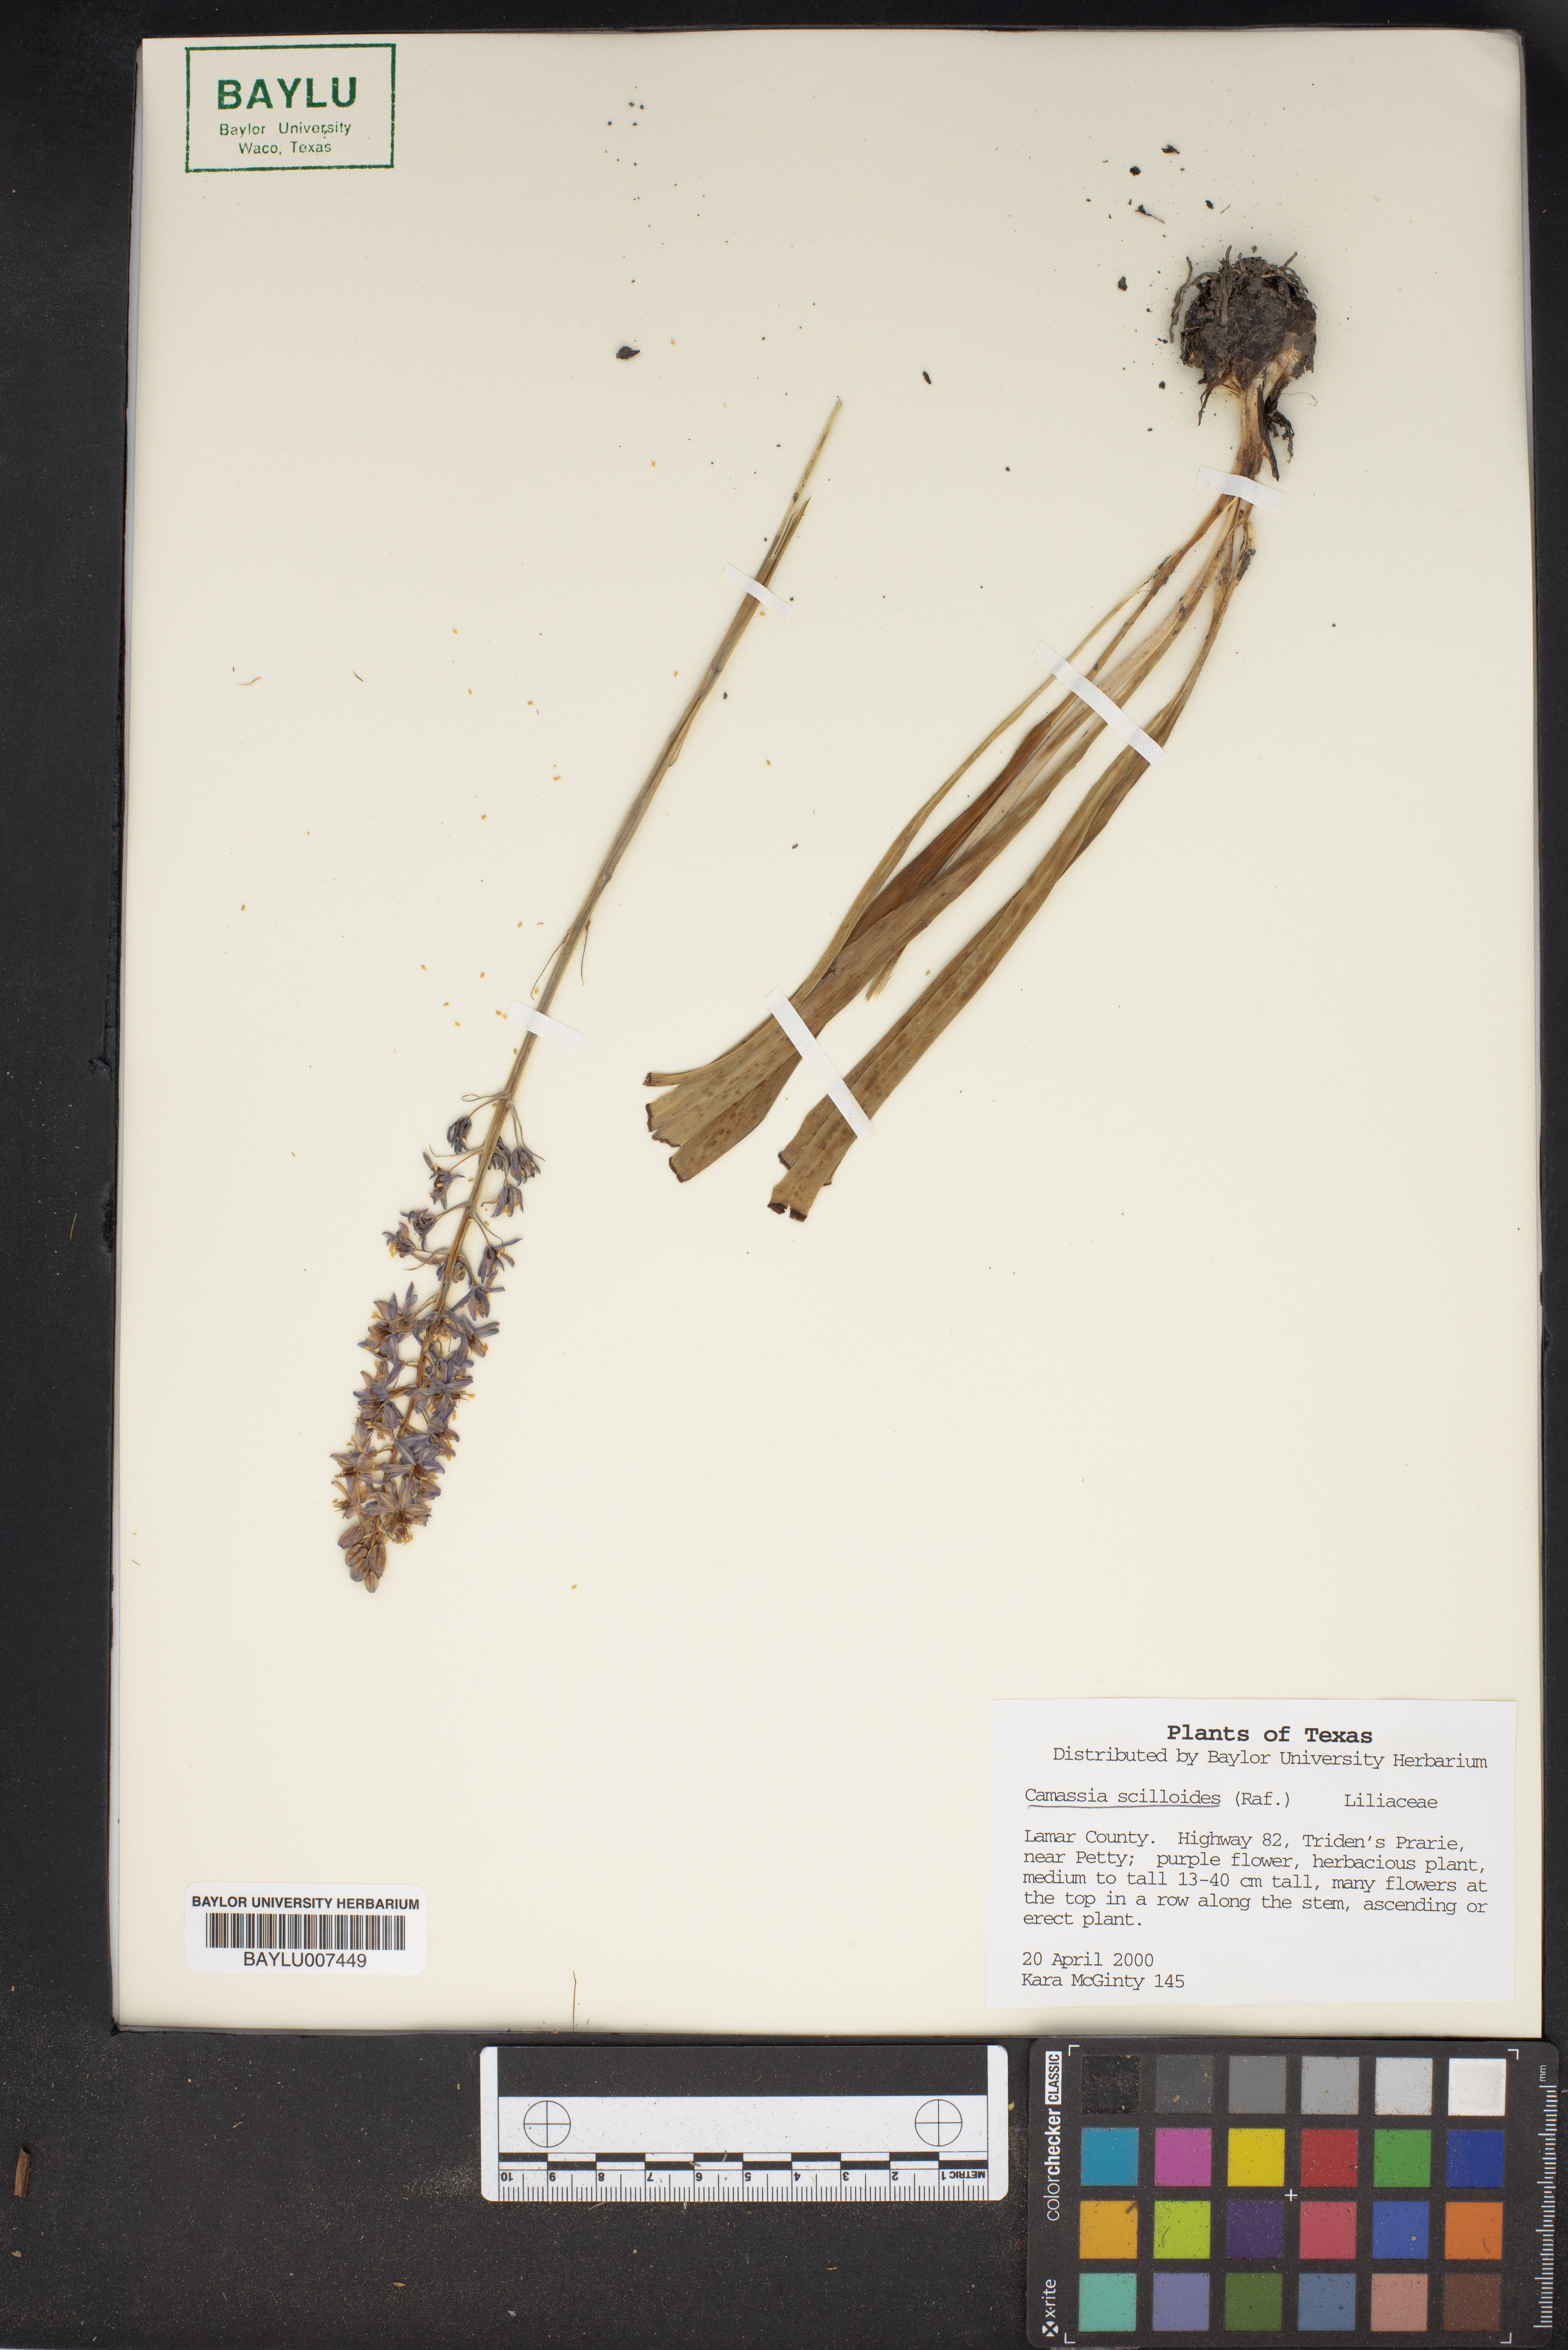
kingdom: Plantae
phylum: Tracheophyta
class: Liliopsida
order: Asparagales
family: Asparagaceae
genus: Camassia
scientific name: Camassia scilloides
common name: Wild hyacinth
